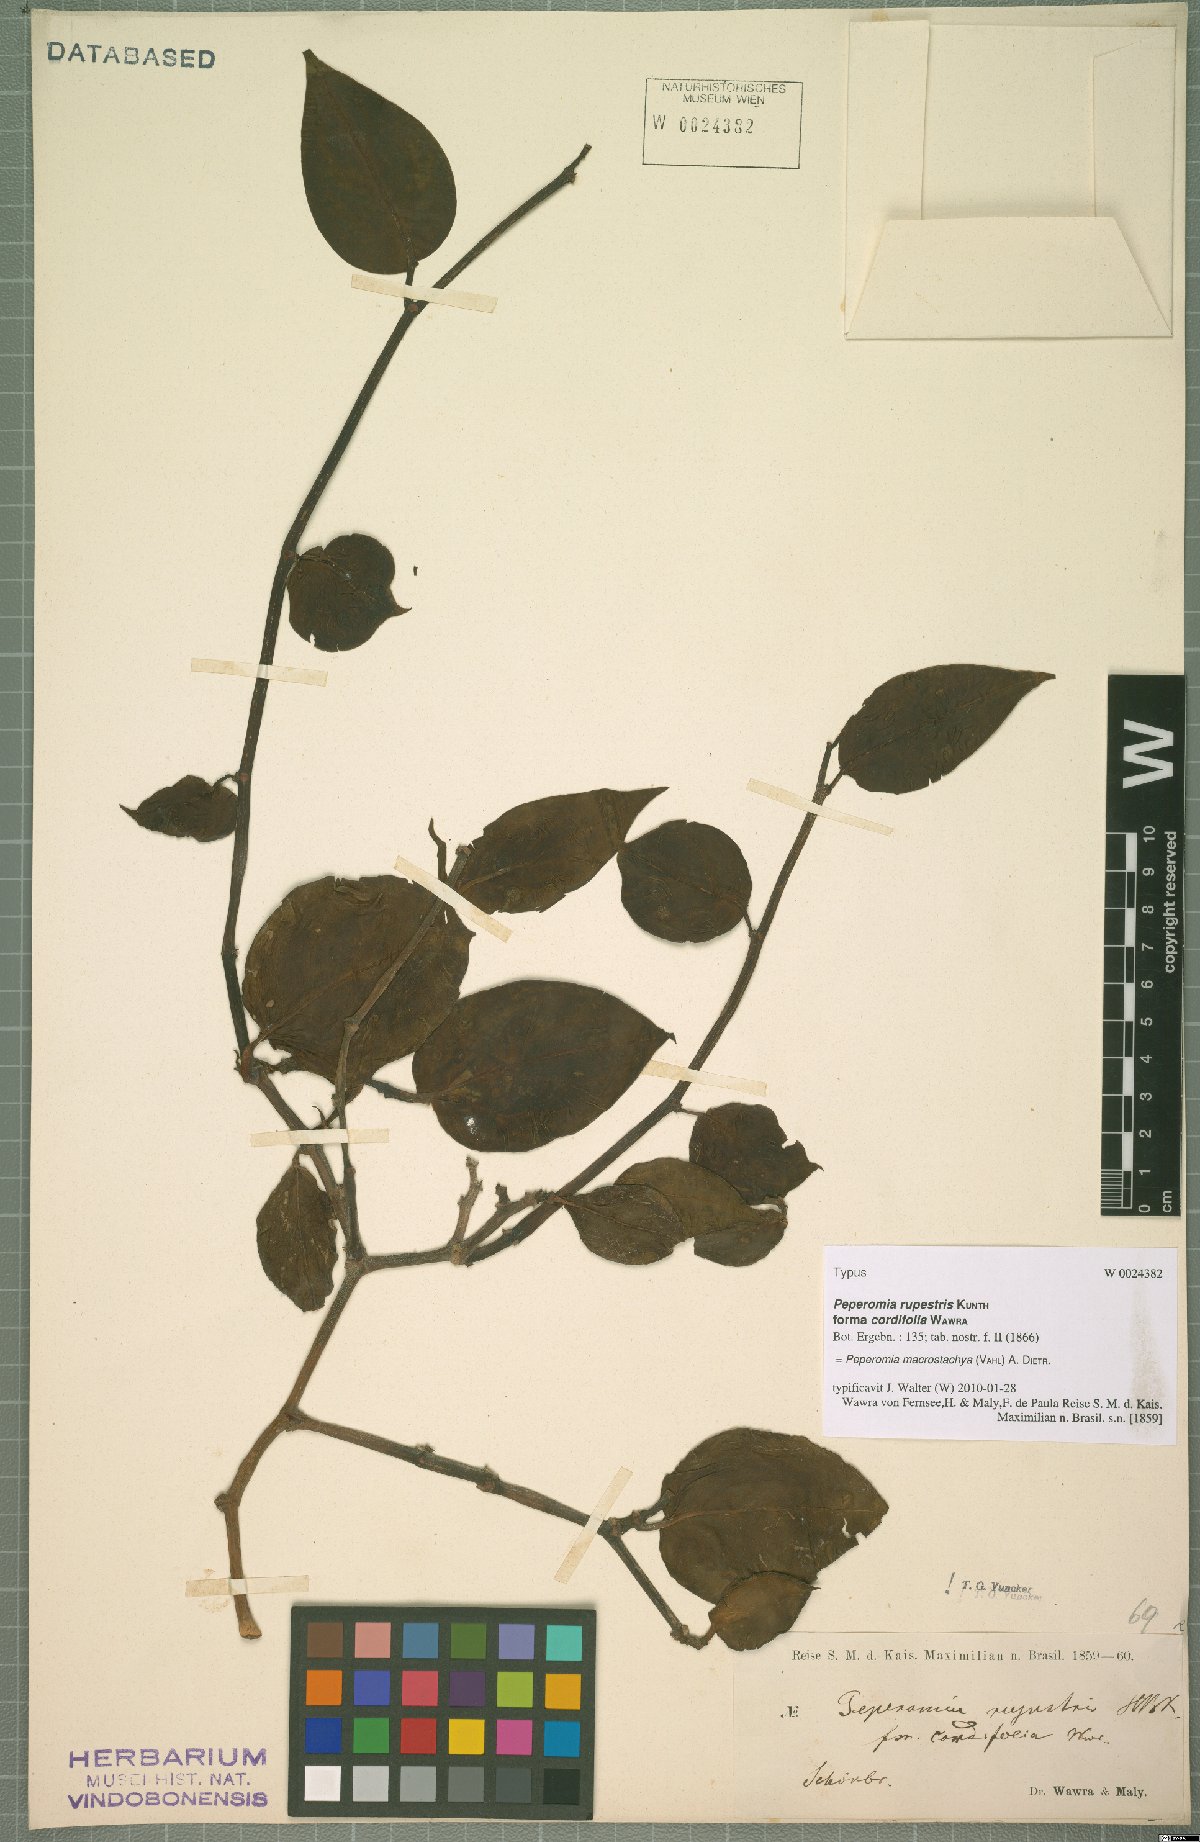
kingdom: Plantae
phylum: Tracheophyta
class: Magnoliopsida
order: Piperales
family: Piperaceae
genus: Peperomia
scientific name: Peperomia macrostachyos
